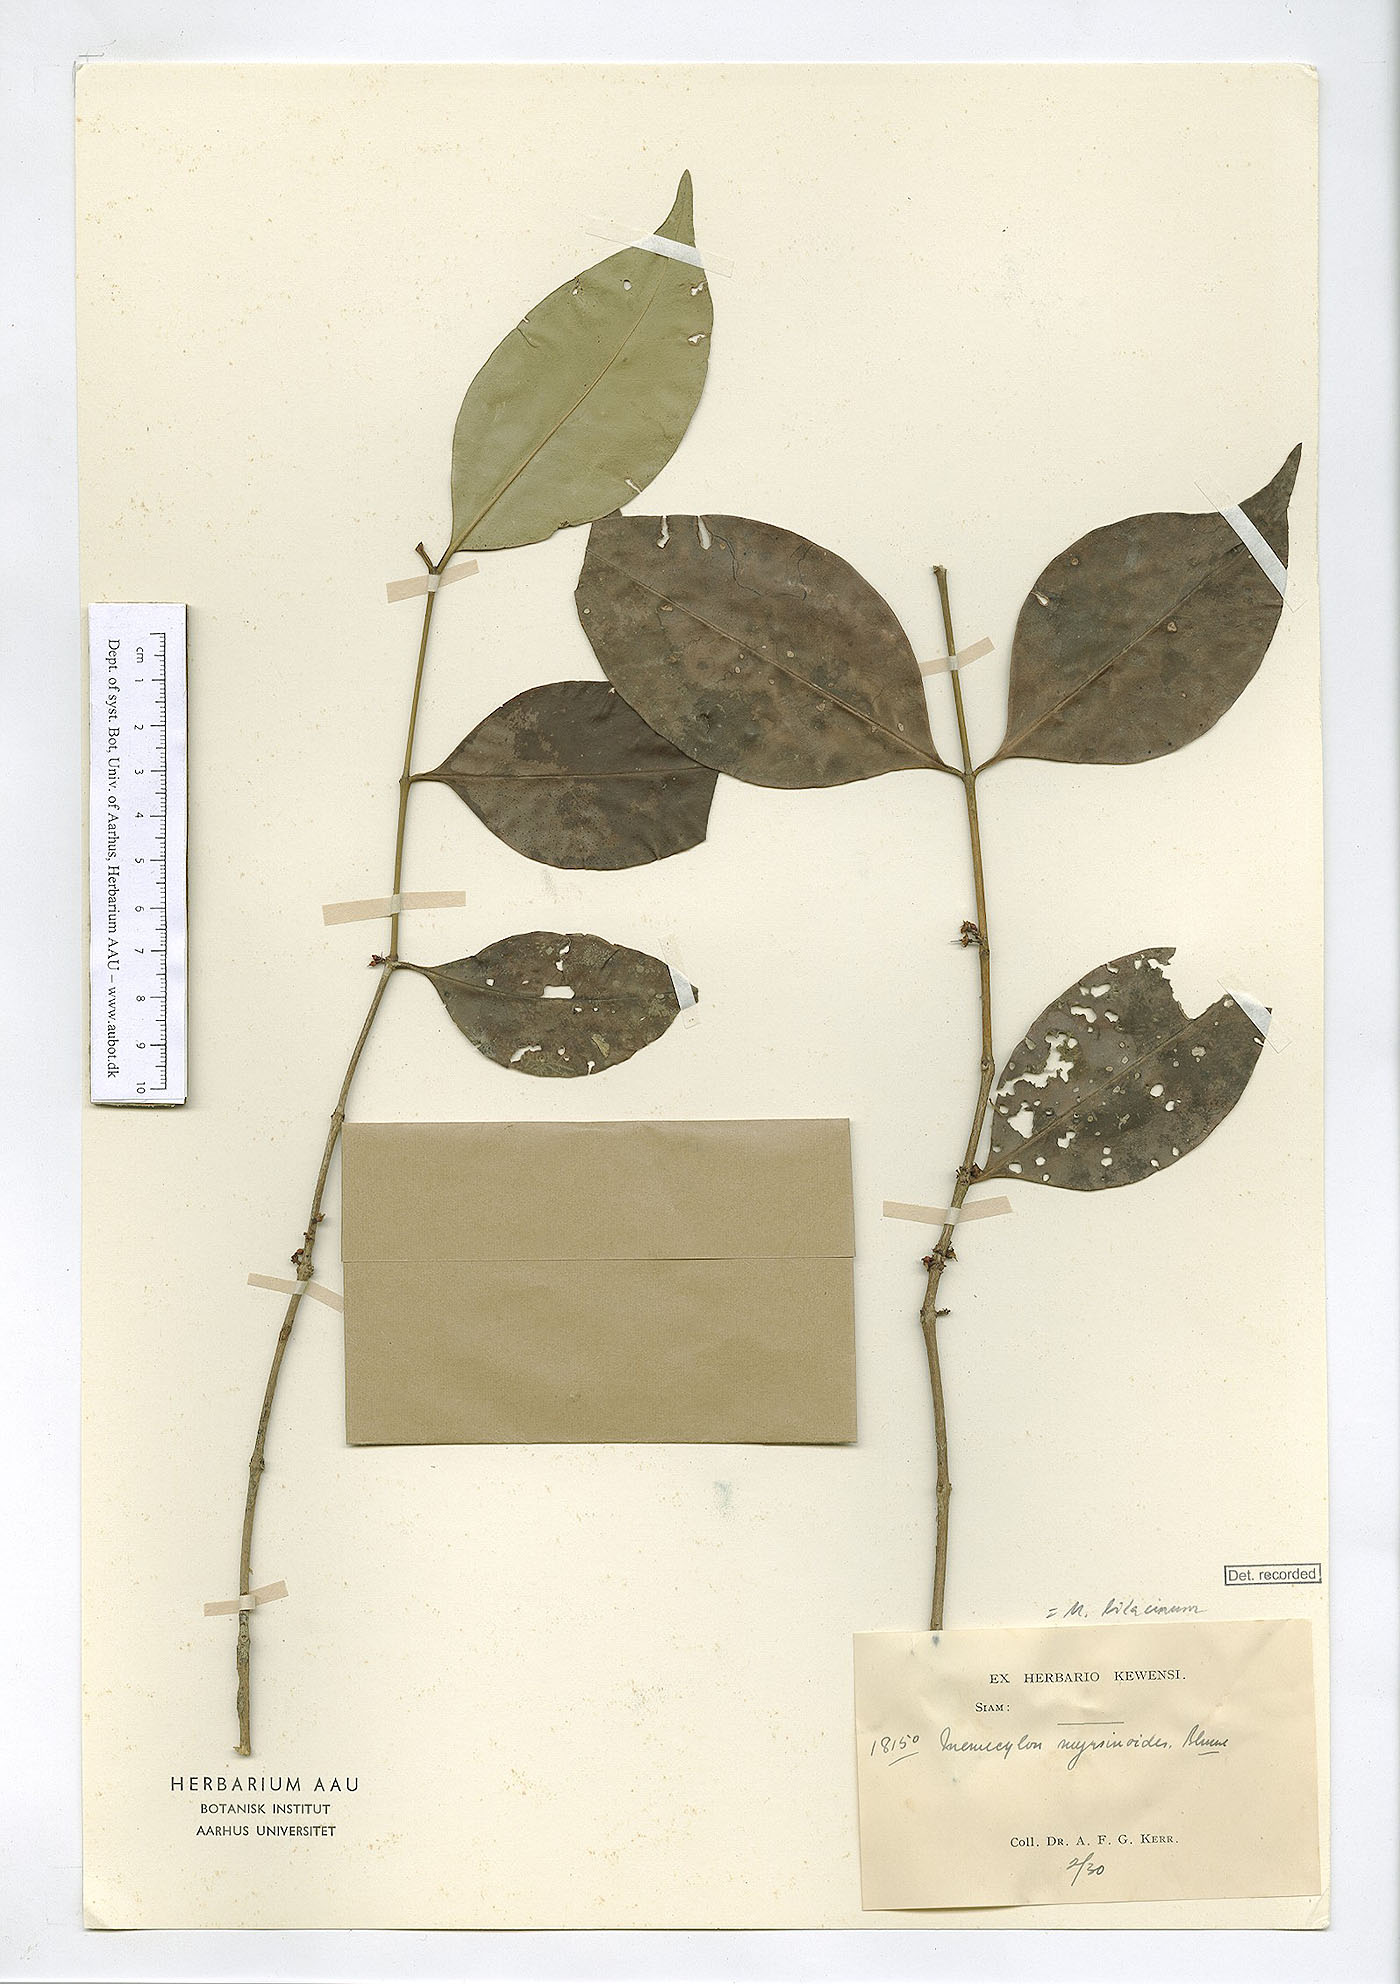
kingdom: Plantae
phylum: Tracheophyta
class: Magnoliopsida
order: Myrtales
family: Melastomataceae
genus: Memecylon
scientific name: Memecylon lilacinum
